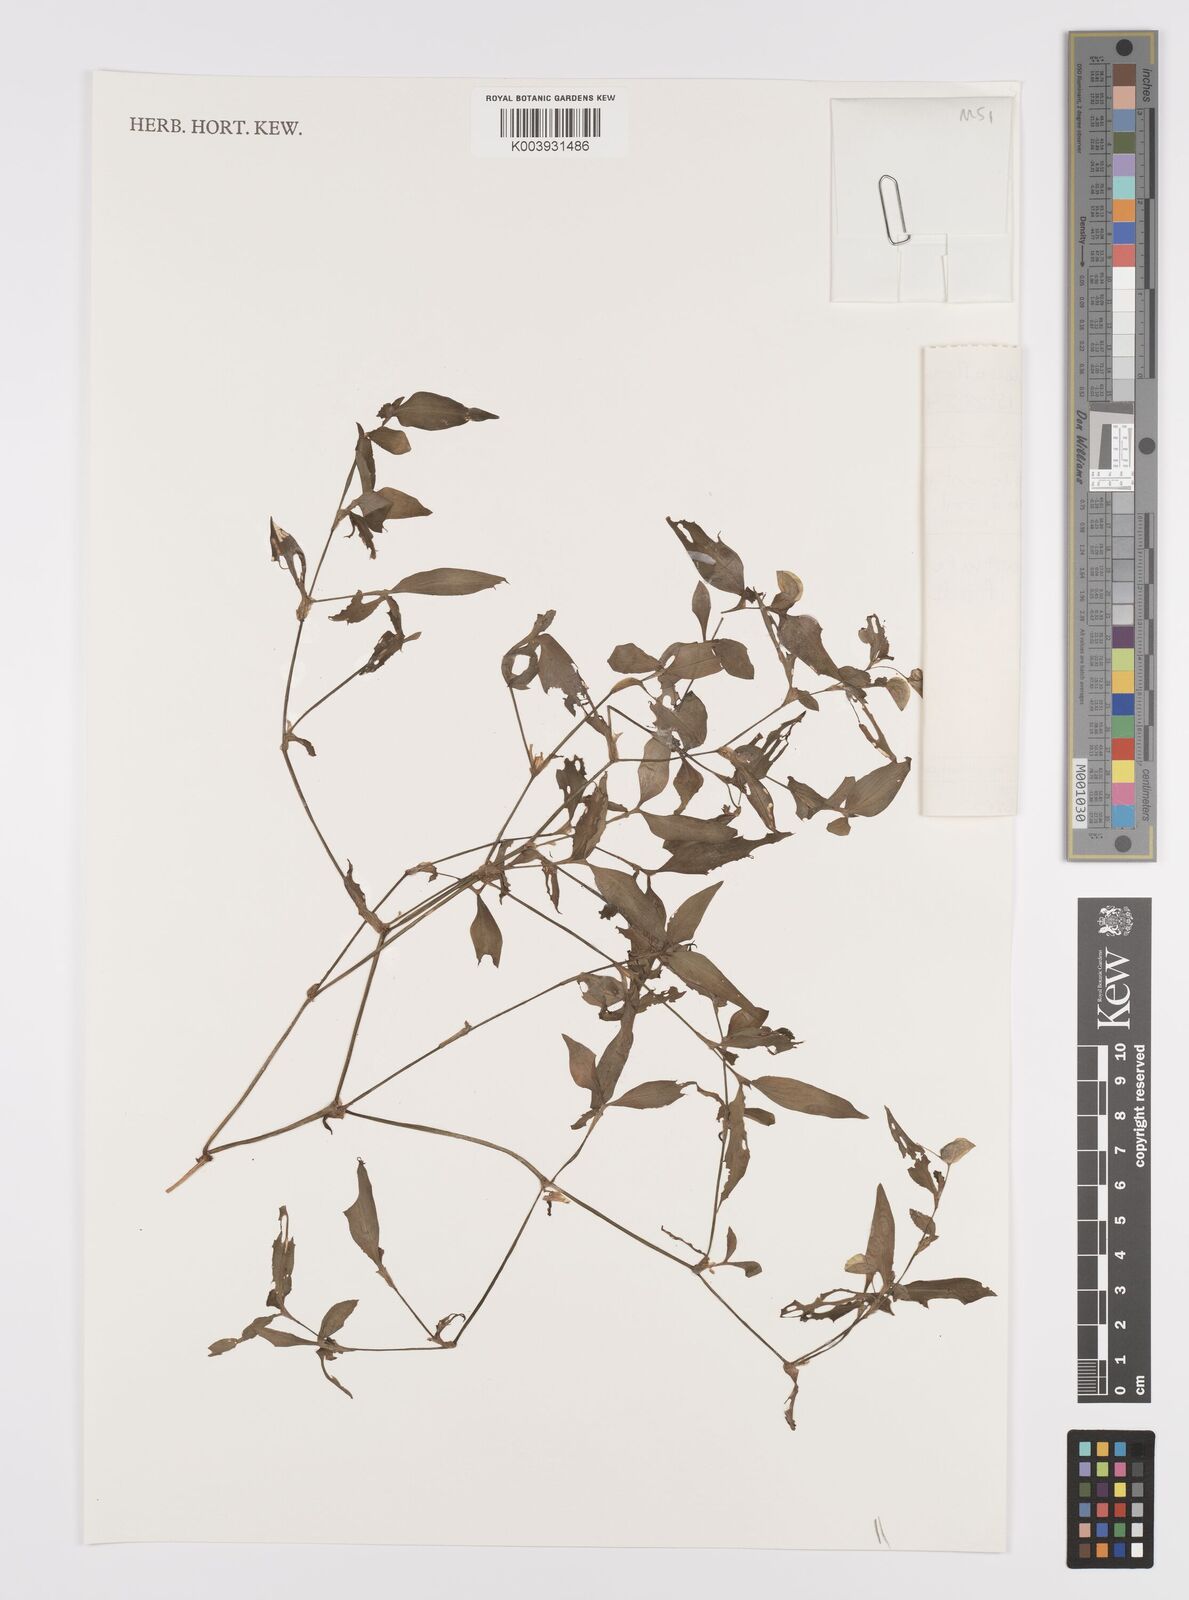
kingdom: Plantae
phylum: Tracheophyta
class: Liliopsida
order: Commelinales
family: Commelinaceae
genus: Commelina
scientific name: Commelina
